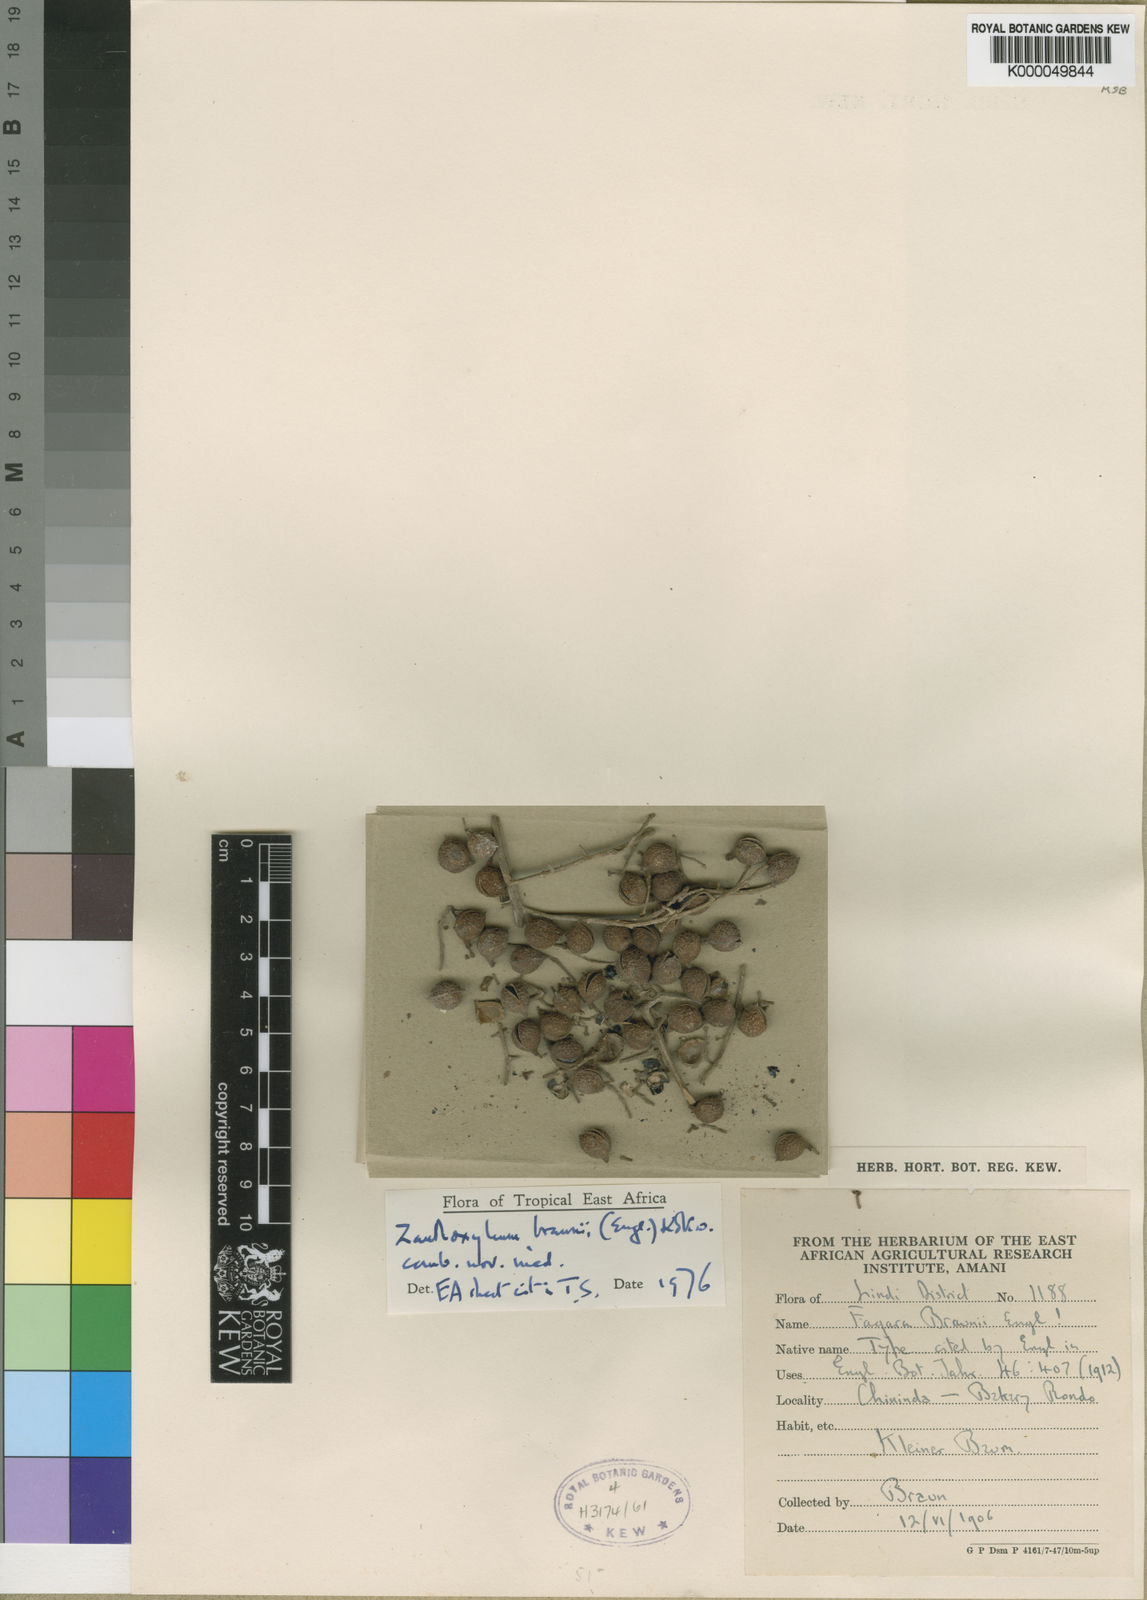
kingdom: Plantae
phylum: Tracheophyta
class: Magnoliopsida
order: Sapindales
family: Rutaceae
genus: Zanthoxylum
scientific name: Zanthoxylum
